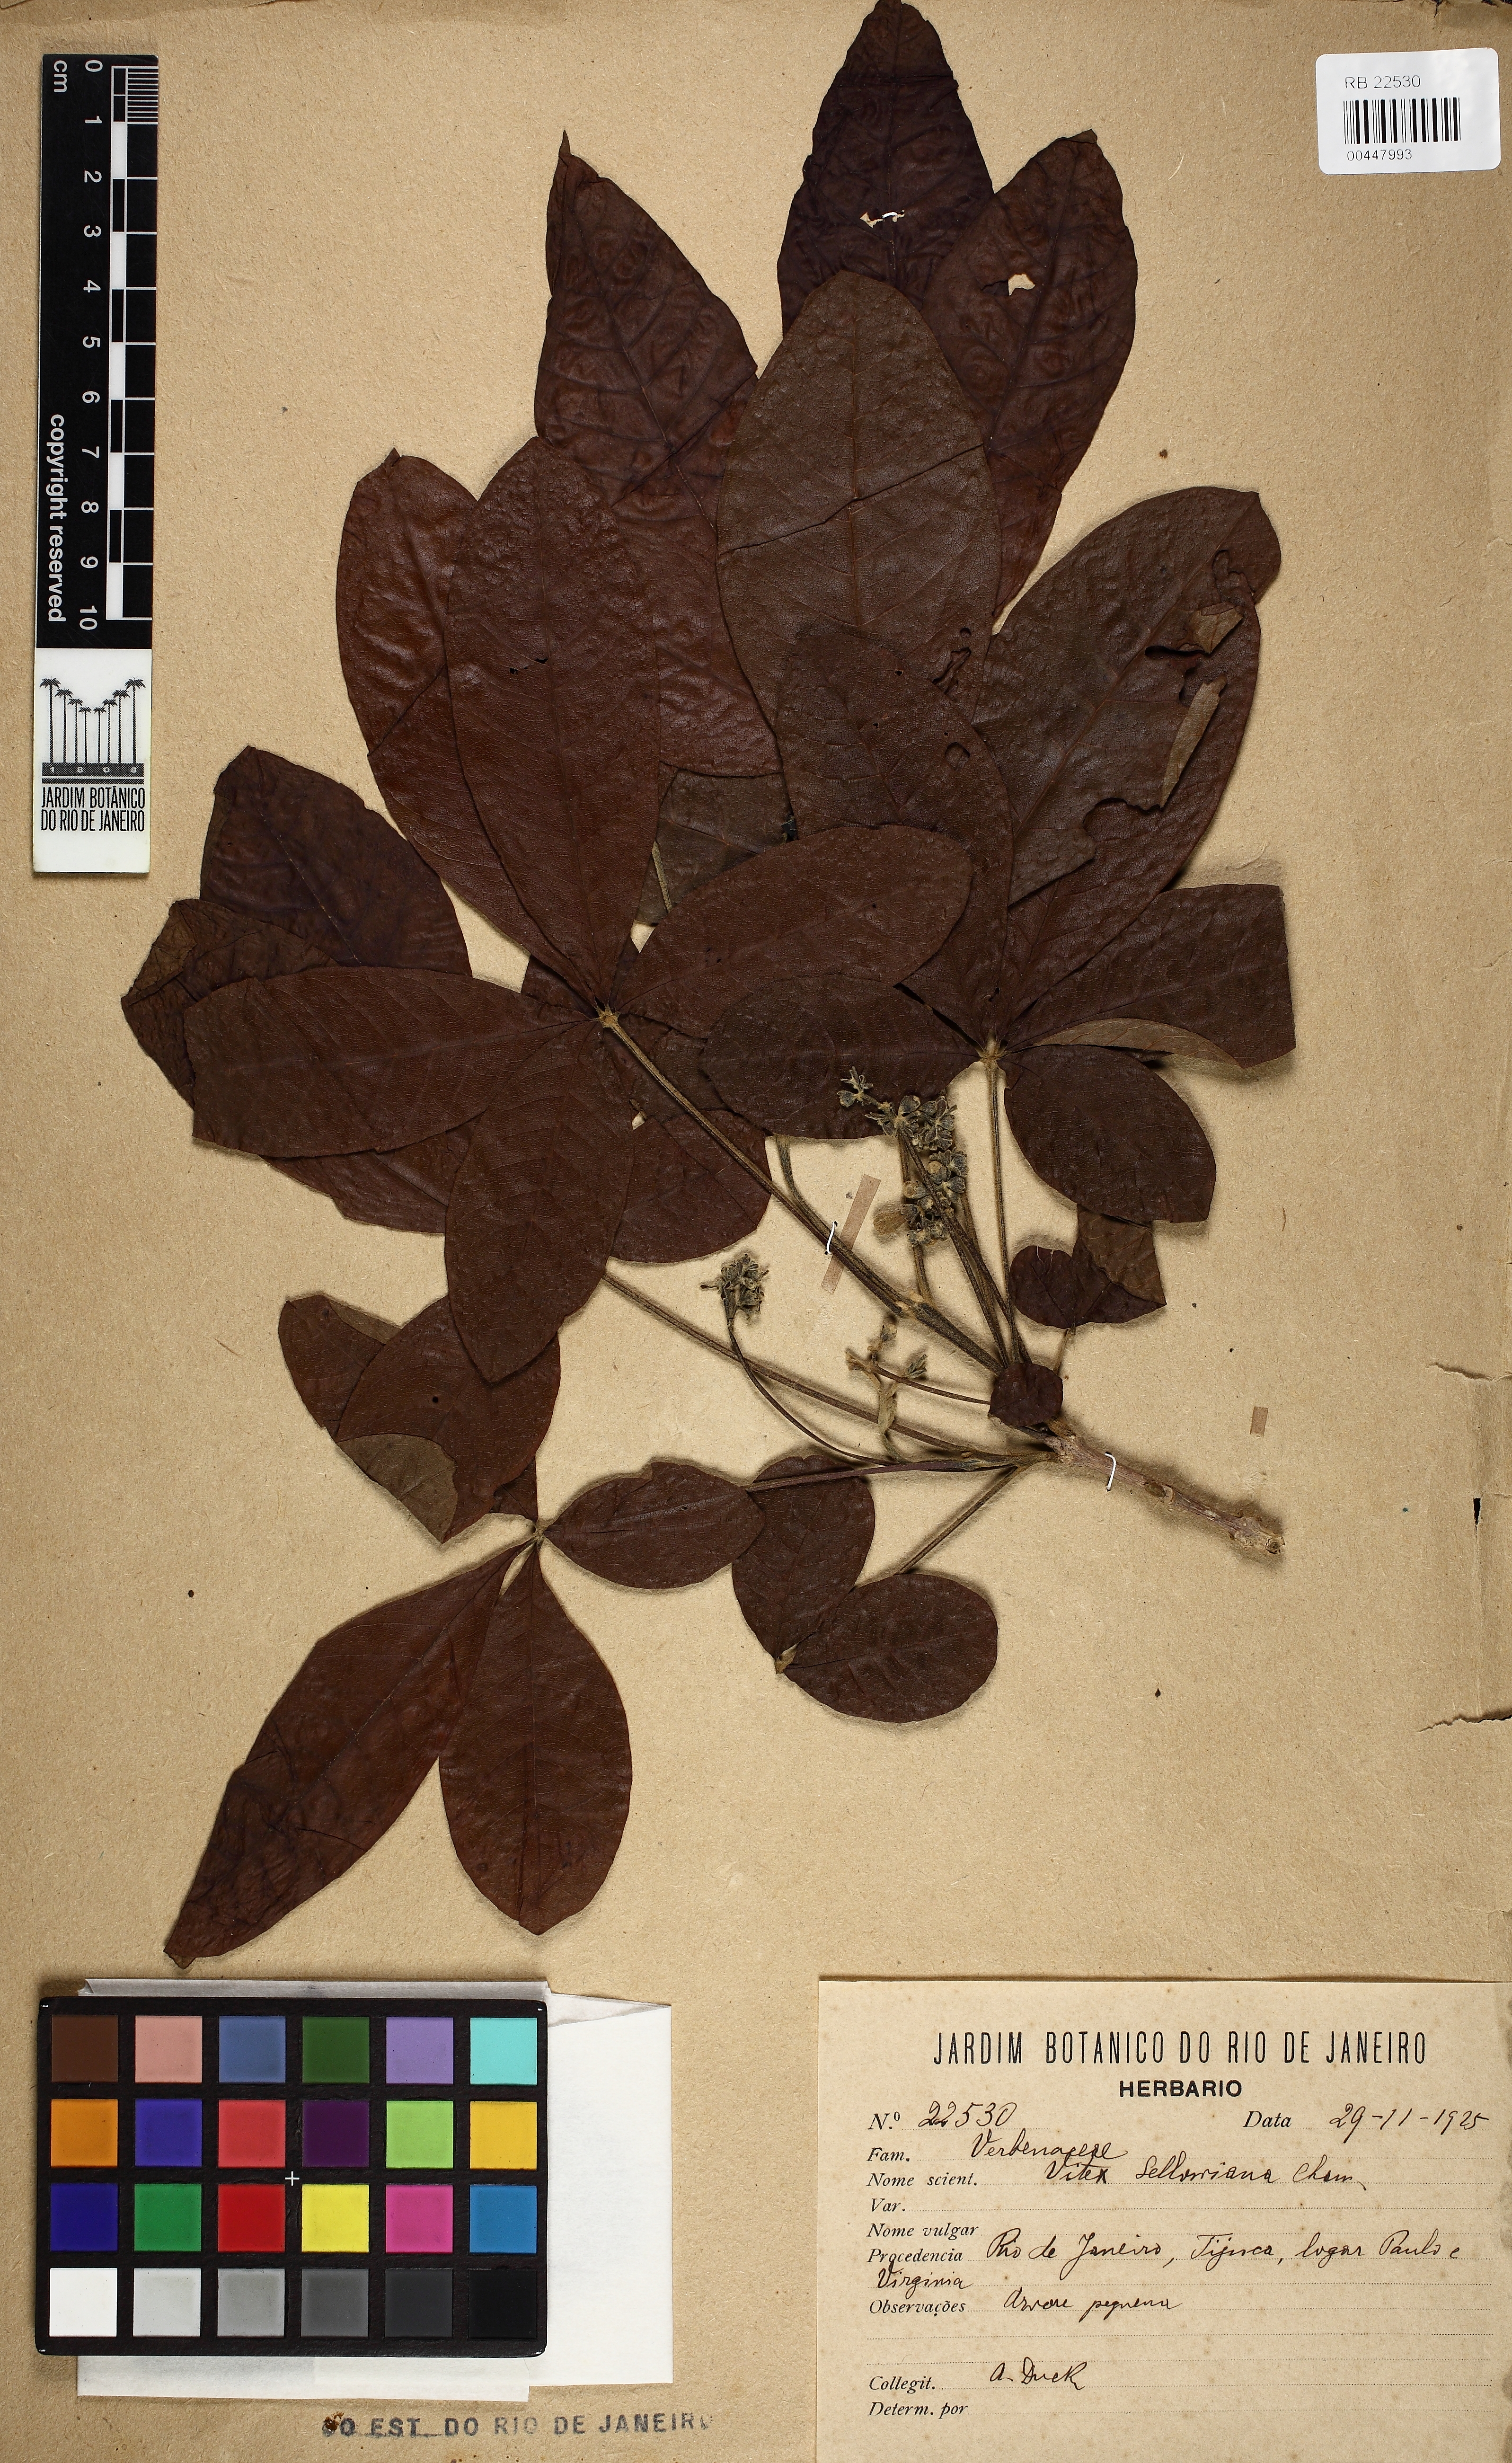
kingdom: Plantae
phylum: Tracheophyta
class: Magnoliopsida
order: Lamiales
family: Lamiaceae
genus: Vitex
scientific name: Vitex sellowiana
